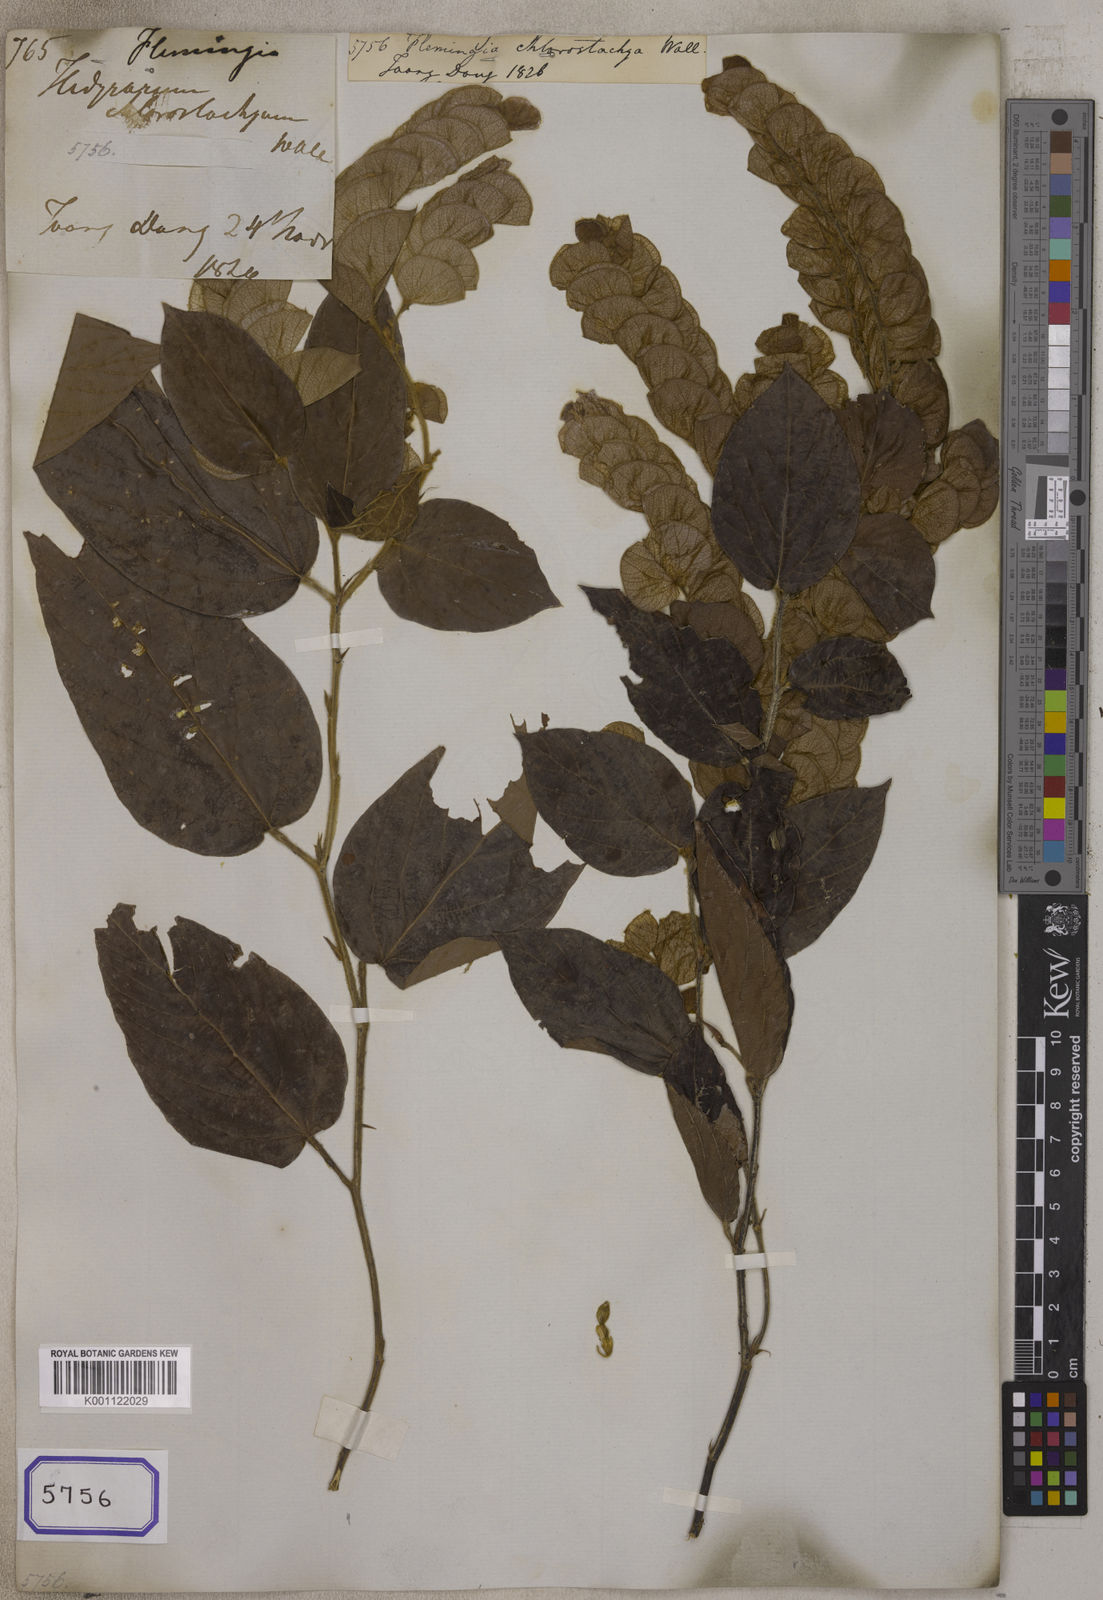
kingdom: Plantae
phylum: Tracheophyta
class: Magnoliopsida
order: Fabales
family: Fabaceae
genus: Flemingia
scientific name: Flemingia
